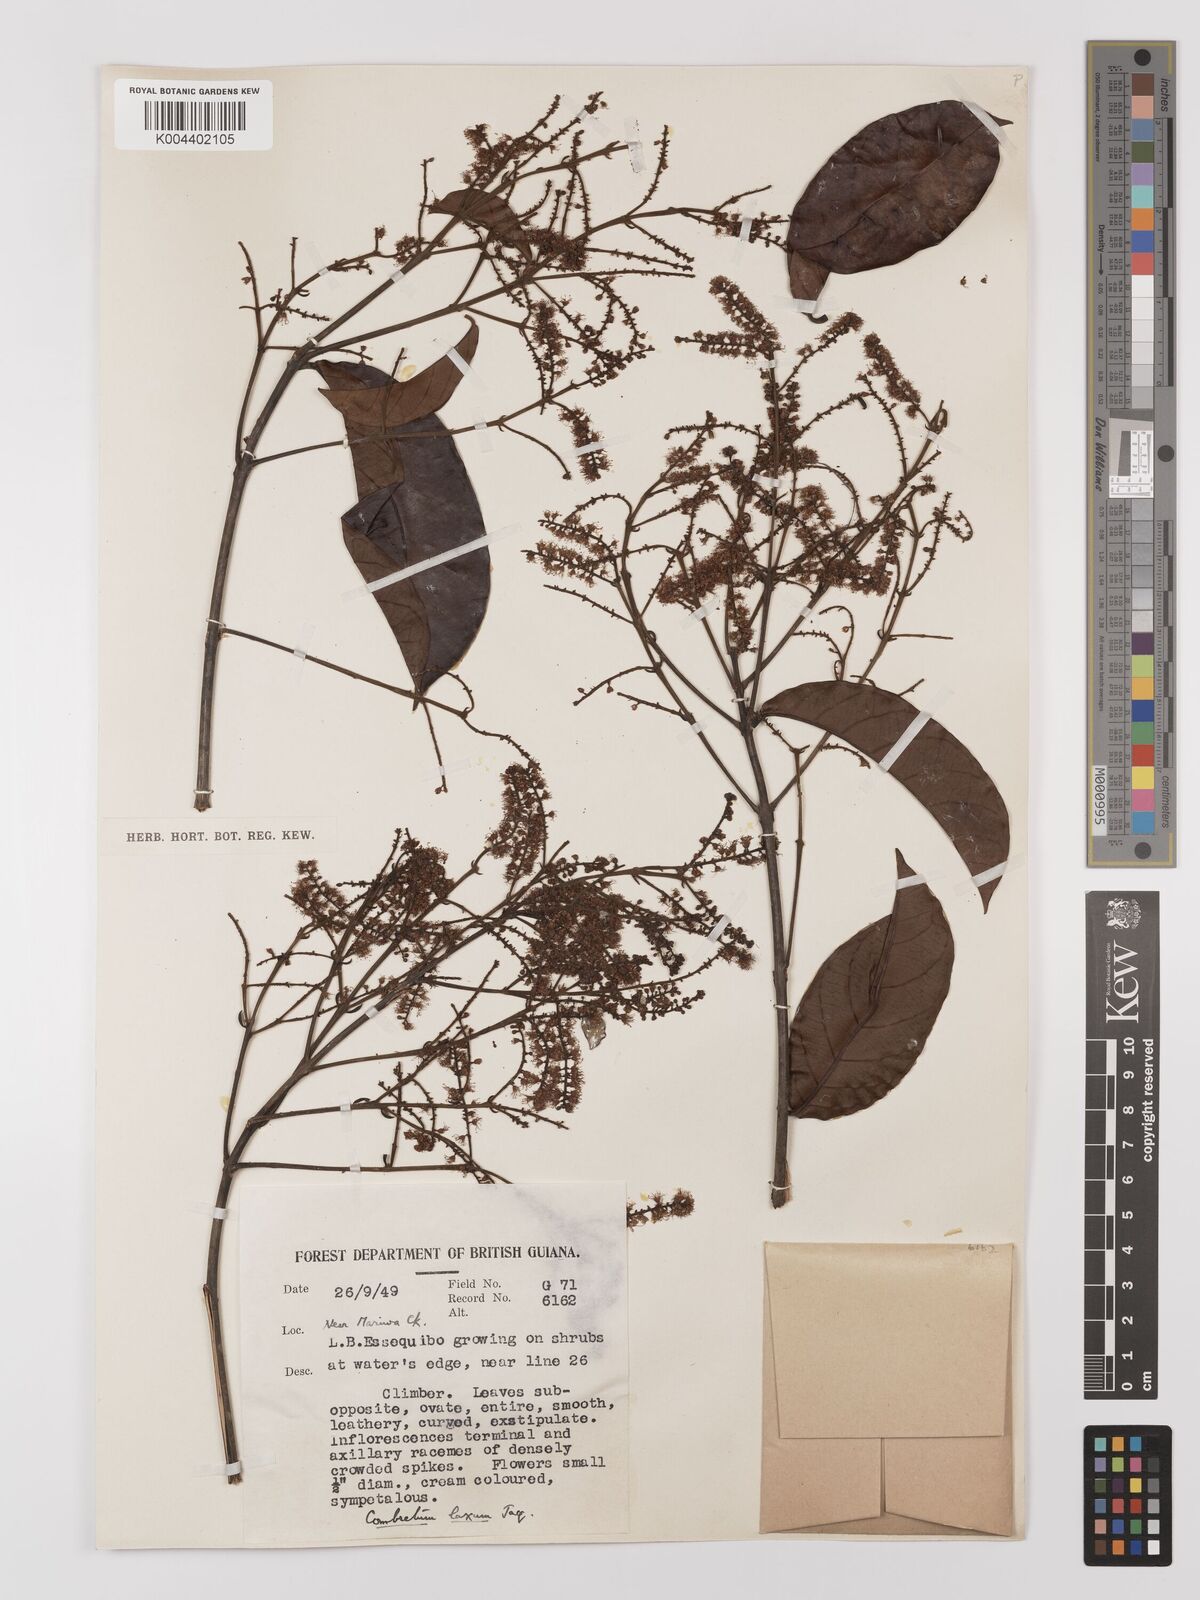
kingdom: Plantae
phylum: Tracheophyta
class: Magnoliopsida
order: Myrtales
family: Combretaceae
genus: Combretum
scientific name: Combretum
